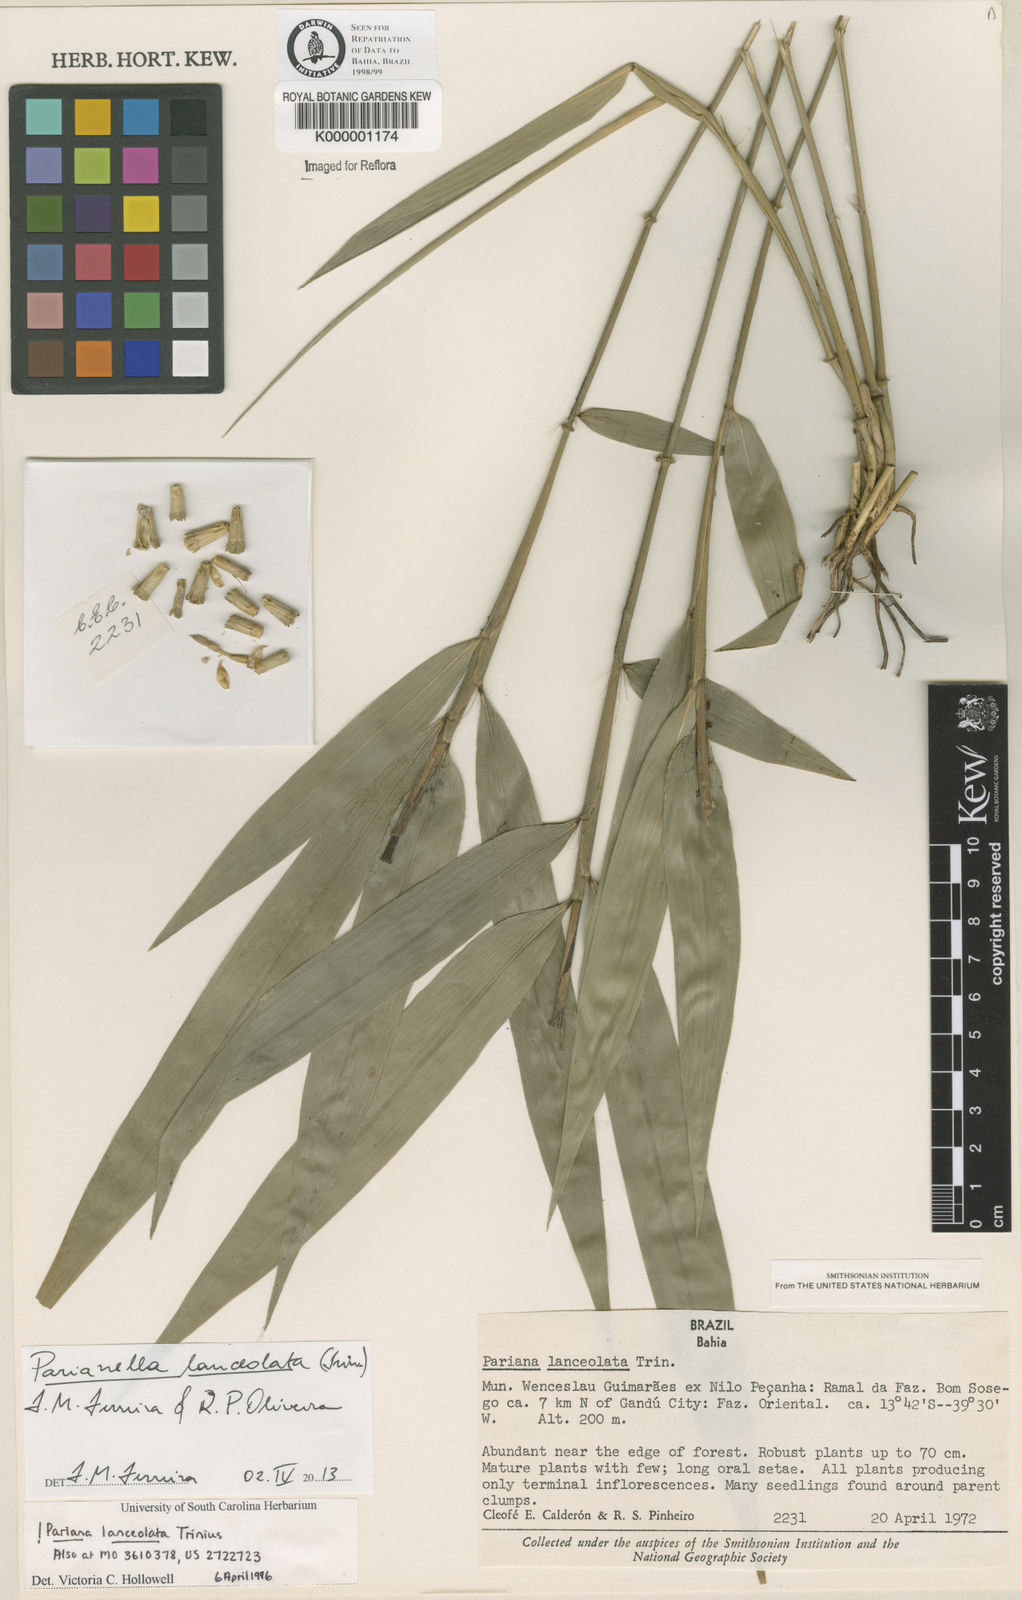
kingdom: Plantae
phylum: Tracheophyta
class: Liliopsida
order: Poales
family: Poaceae
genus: Parianella
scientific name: Parianella lanceolata
